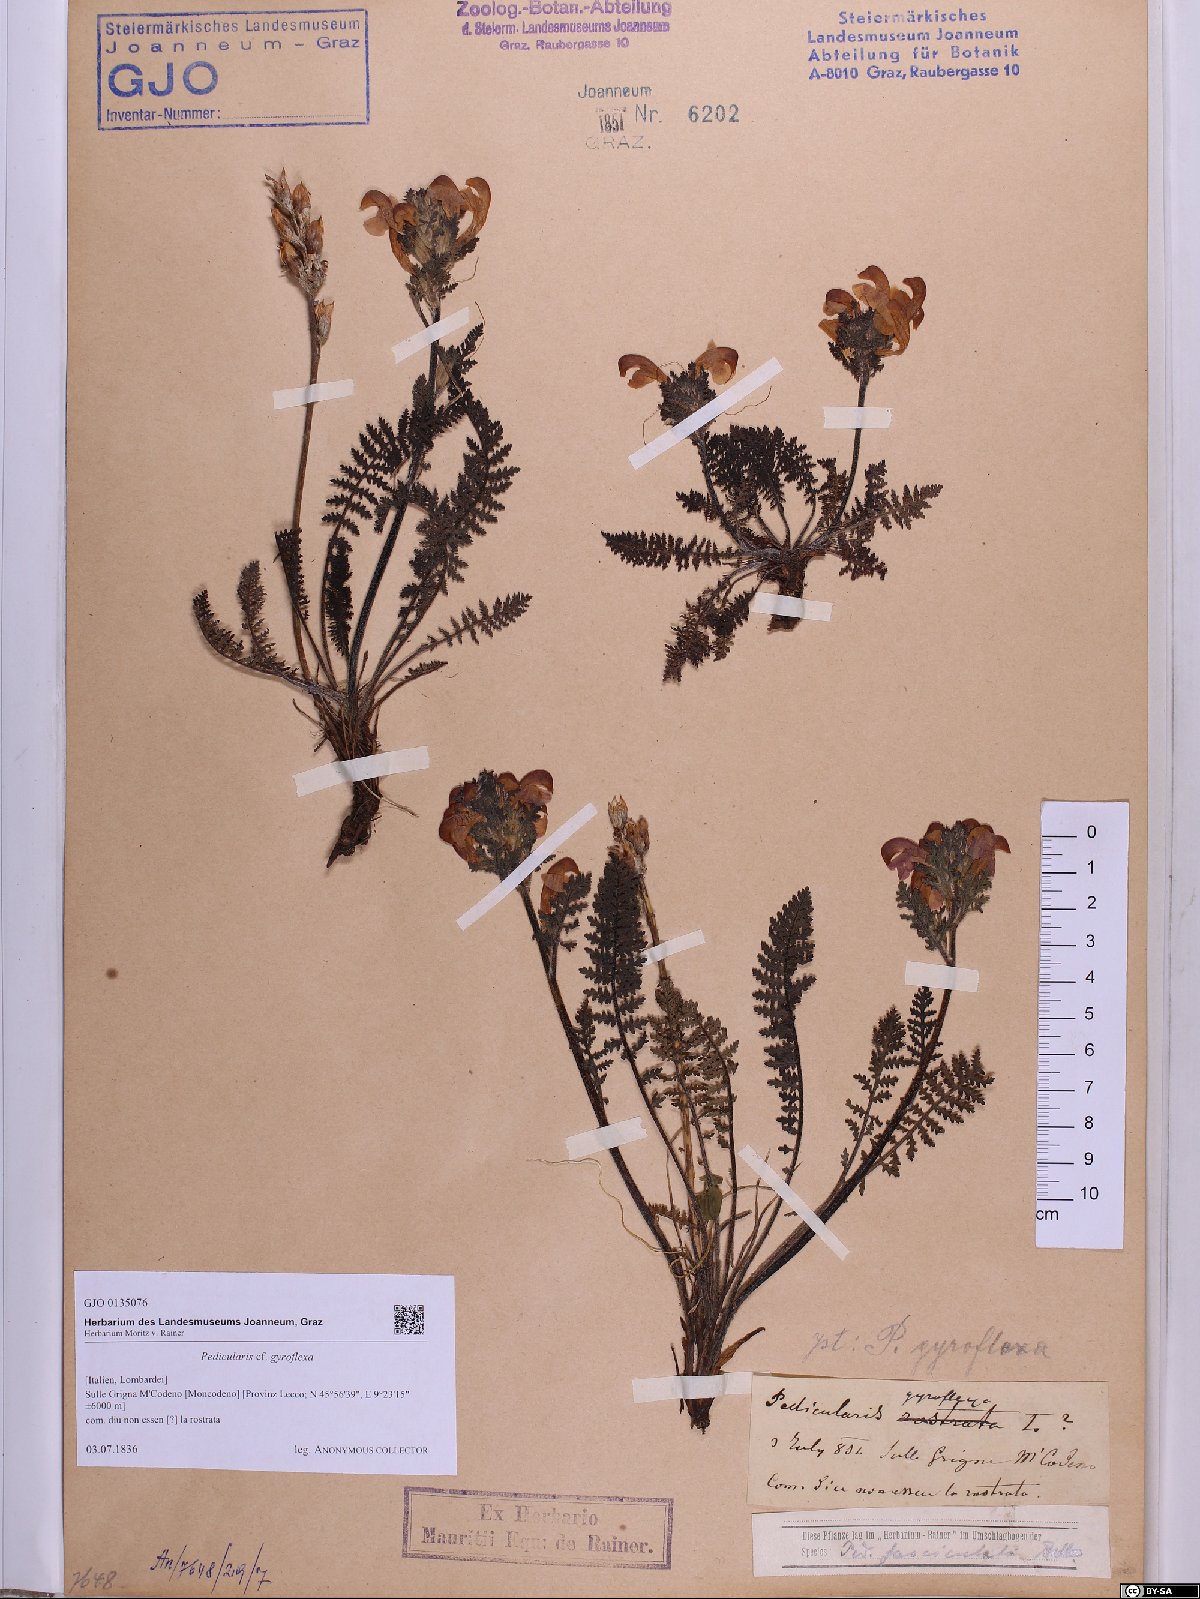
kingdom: Plantae
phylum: Tracheophyta
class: Magnoliopsida
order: Lamiales
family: Orobanchaceae
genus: Pedicularis
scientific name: Pedicularis gyroflexa
